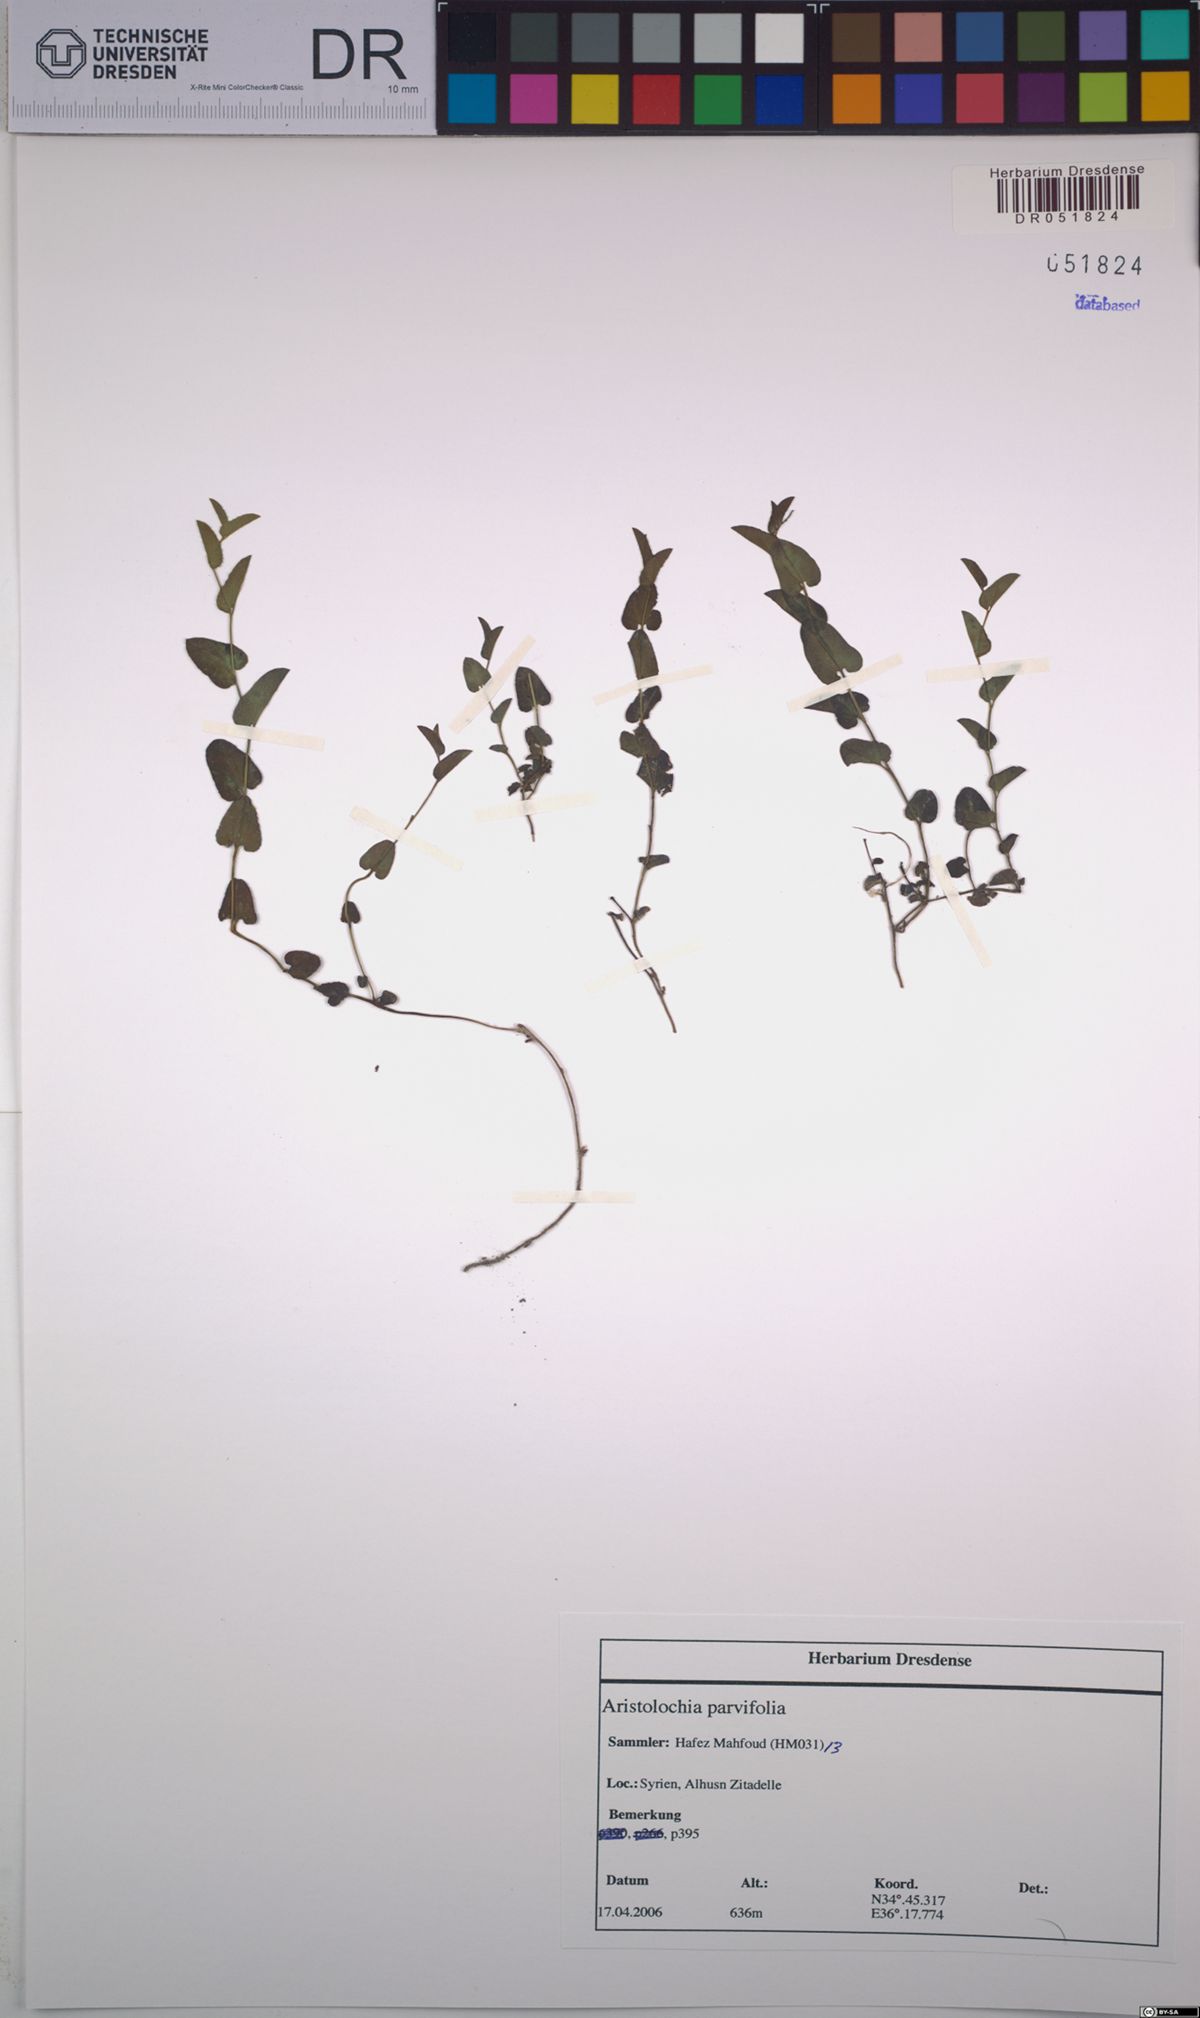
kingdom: Plantae
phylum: Tracheophyta
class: Magnoliopsida
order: Piperales
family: Aristolochiaceae
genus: Aristolochia
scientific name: Aristolochia parvifolia
